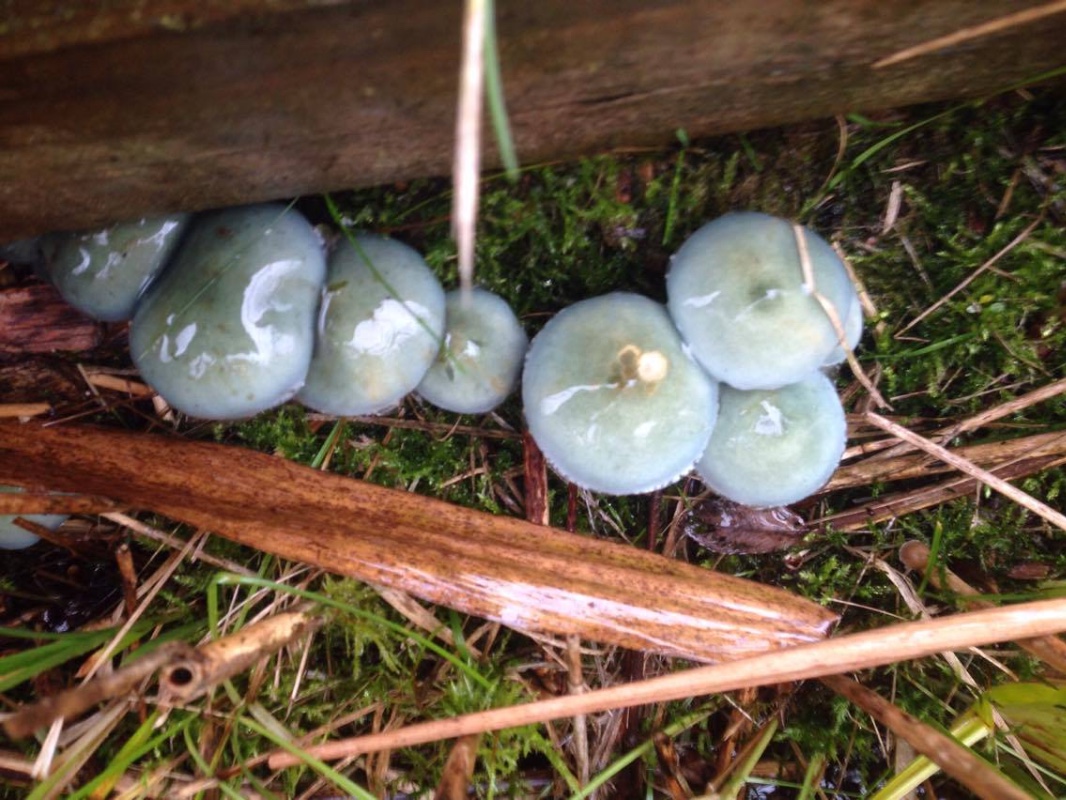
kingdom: Fungi
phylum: Basidiomycota
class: Agaricomycetes
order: Agaricales
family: Strophariaceae
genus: Stropharia
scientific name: Stropharia cyanea
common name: blågrøn bredblad
